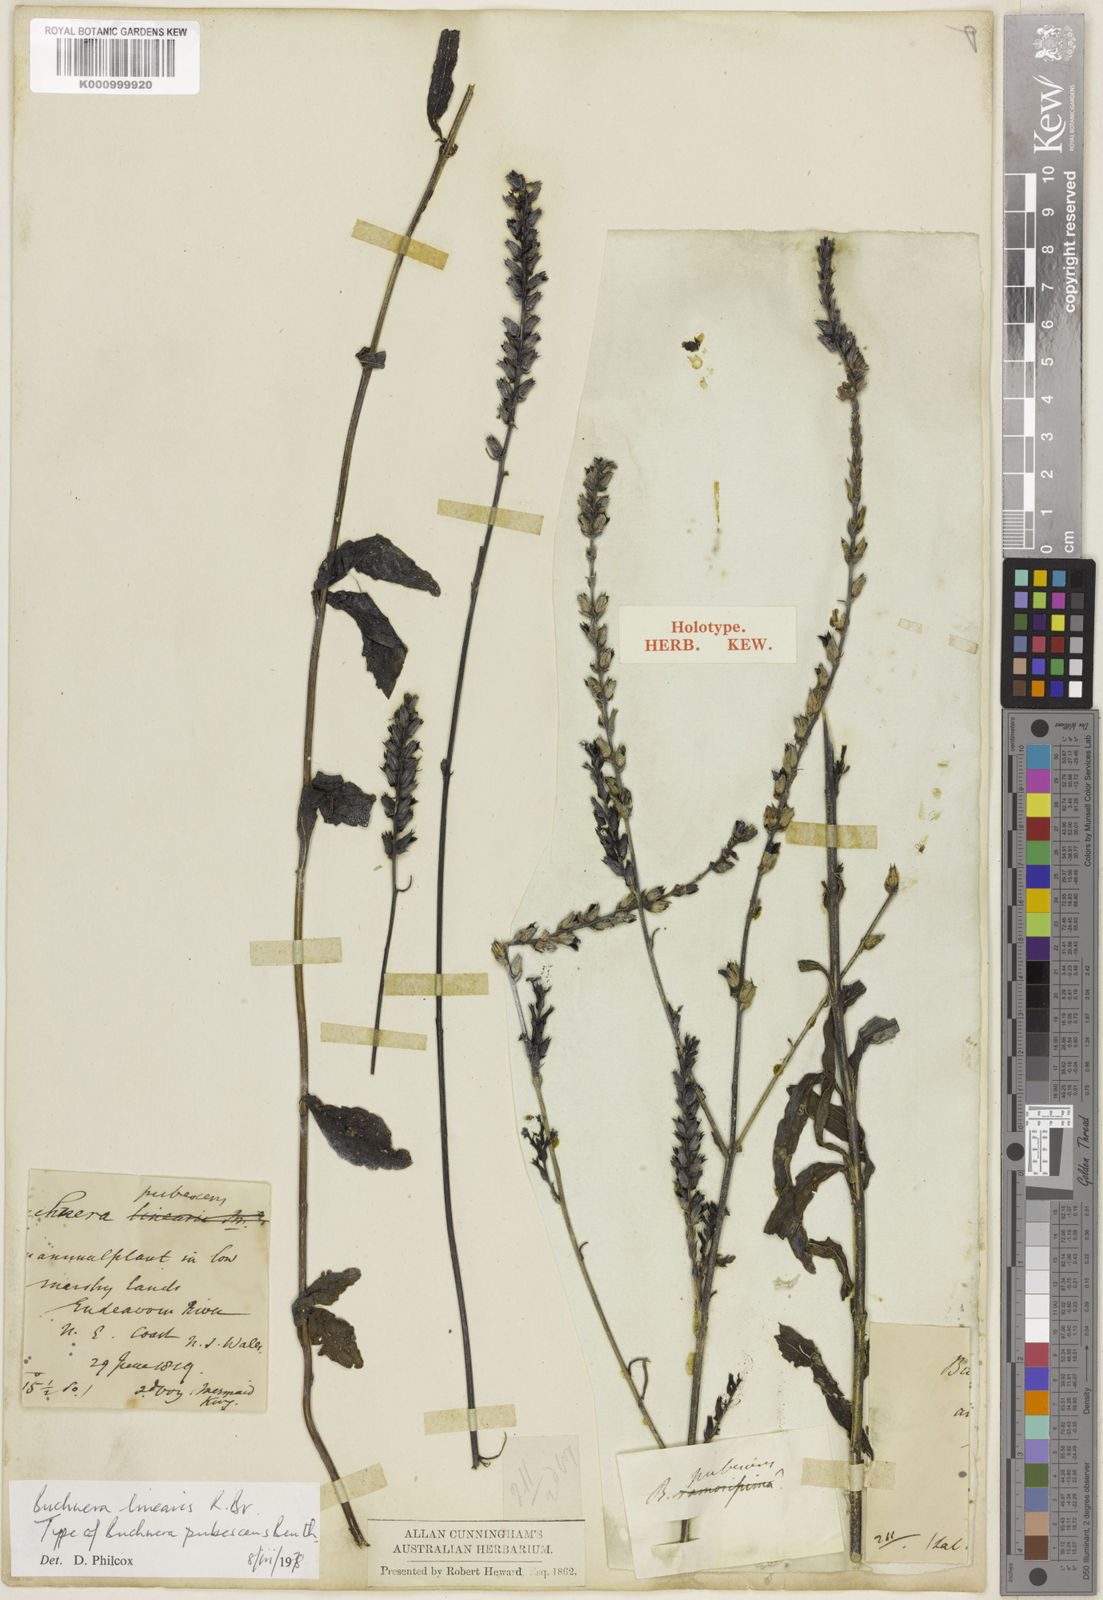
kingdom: Plantae
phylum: Tracheophyta
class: Magnoliopsida
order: Lamiales
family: Orobanchaceae
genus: Buchnera
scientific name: Buchnera linearis
